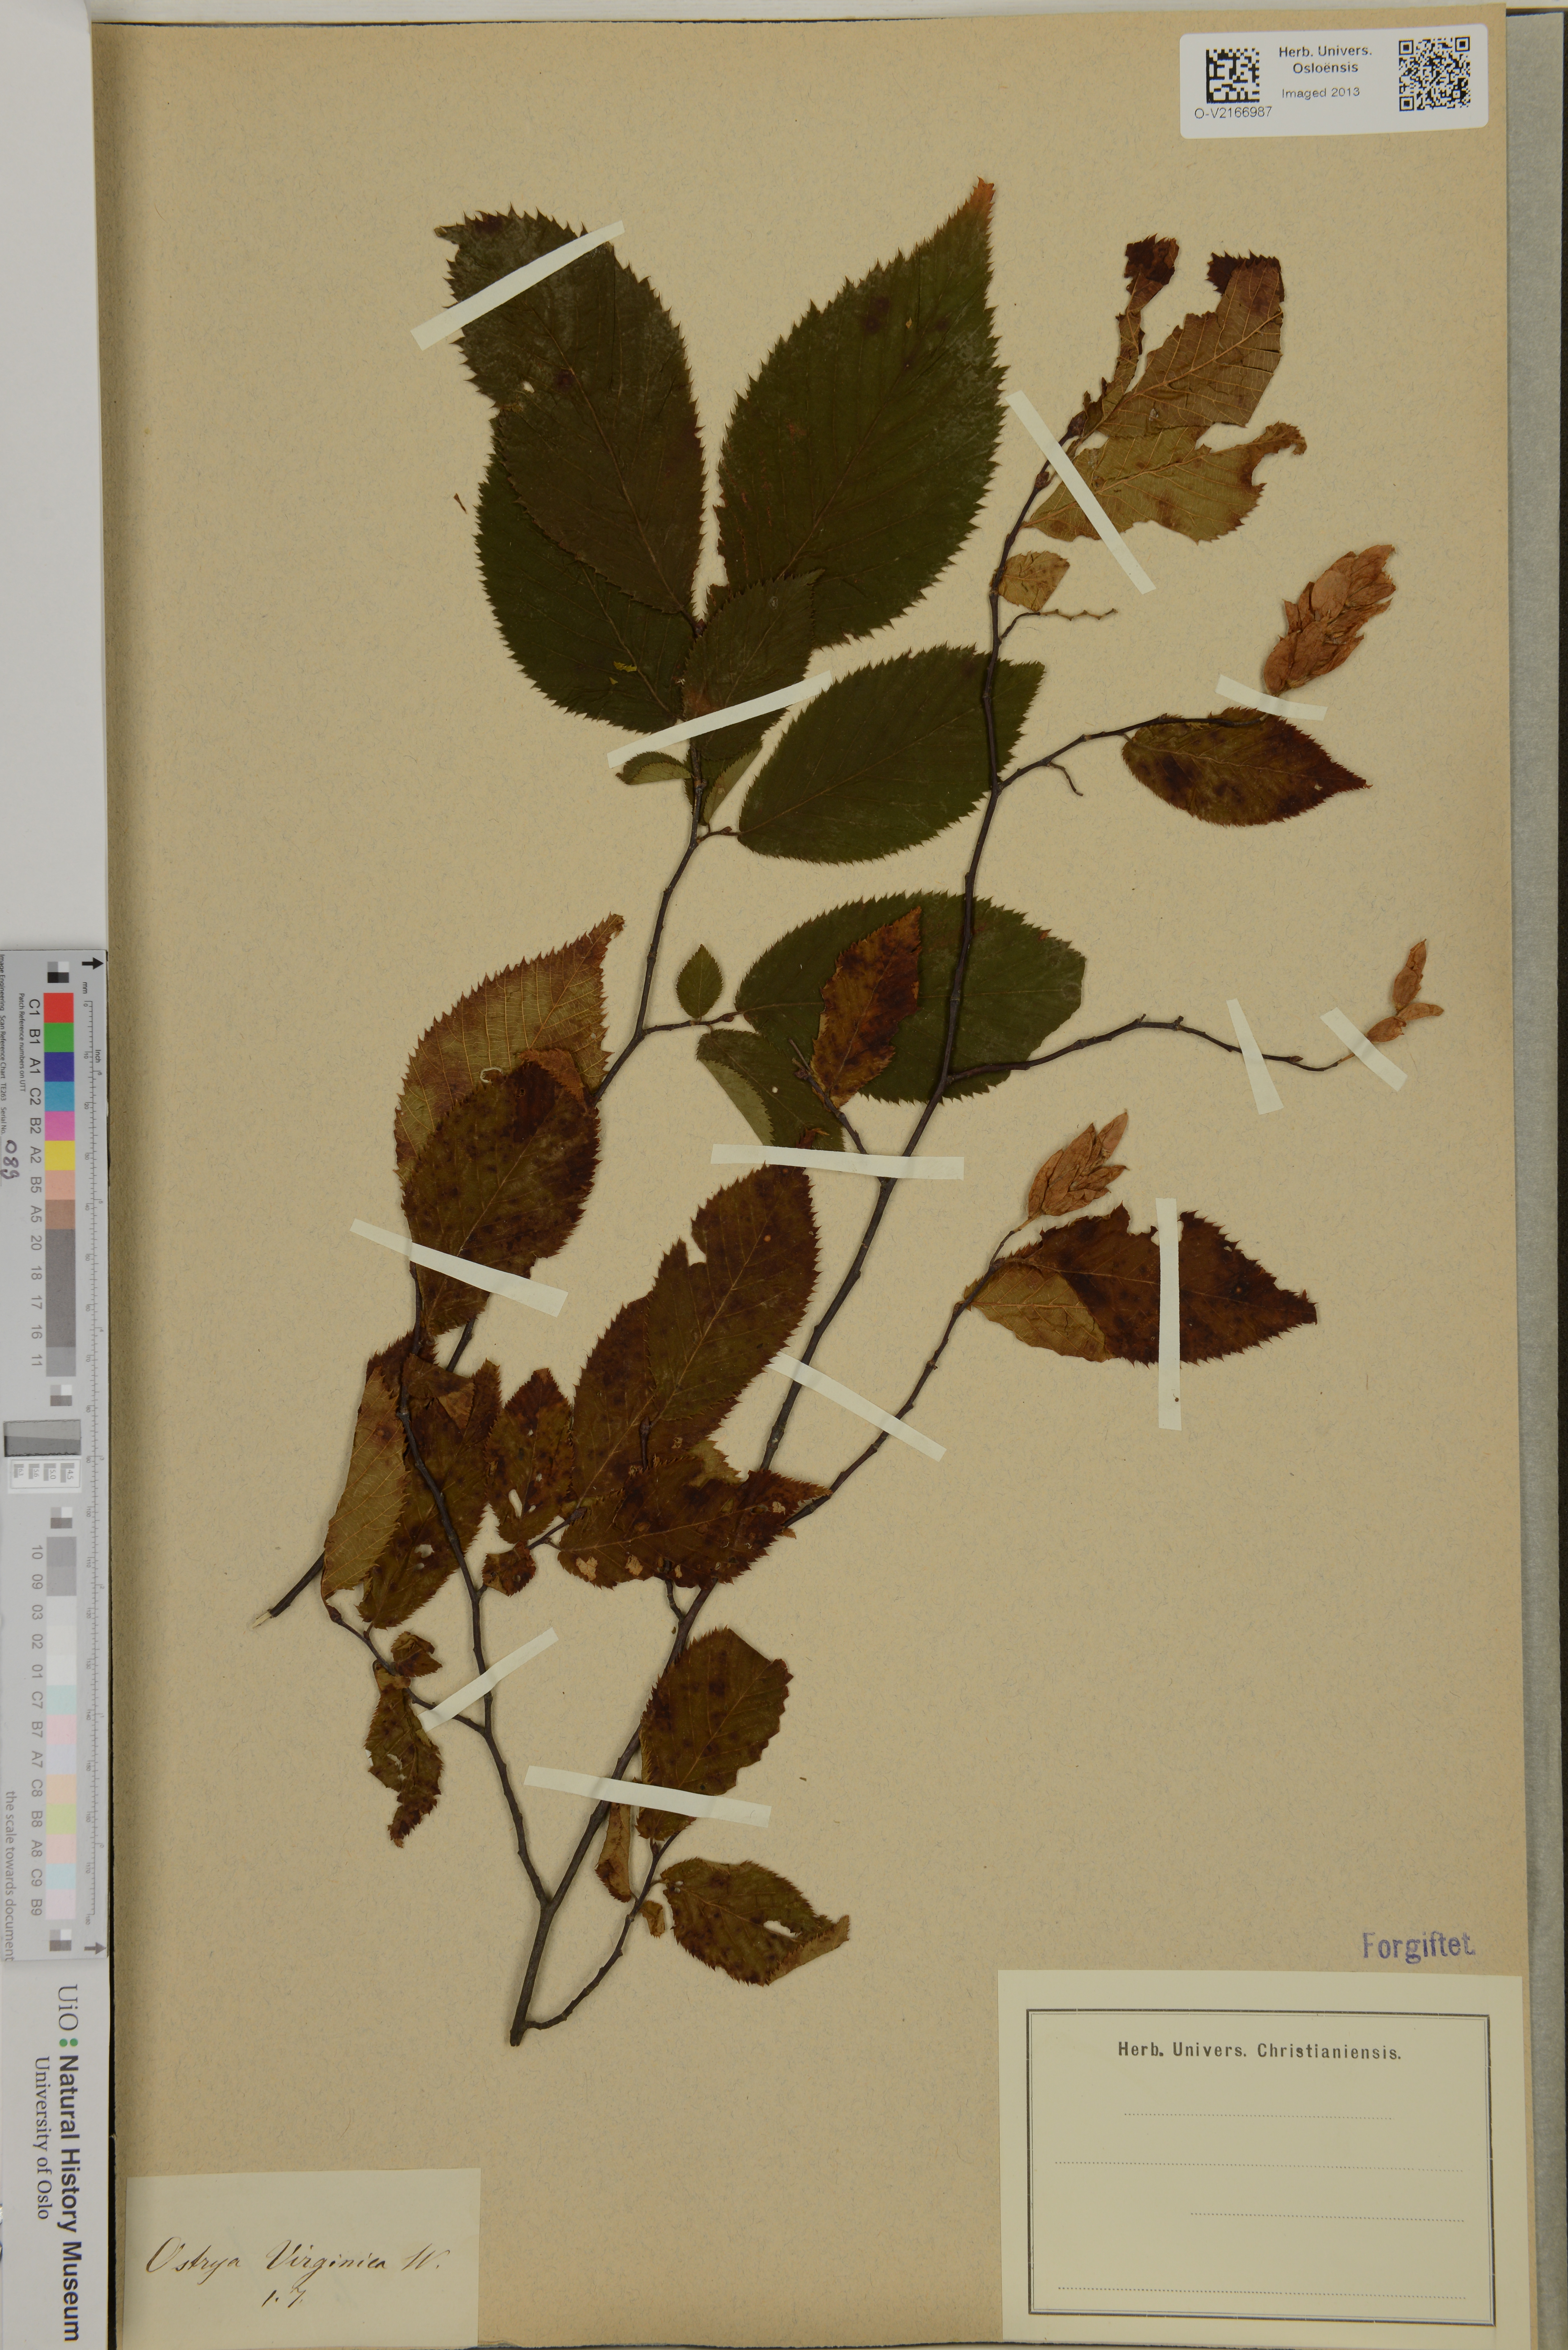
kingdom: Plantae
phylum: Tracheophyta
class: Magnoliopsida
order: Fagales
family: Betulaceae
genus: Ostrya
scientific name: Ostrya virginiana
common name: Ironwood
